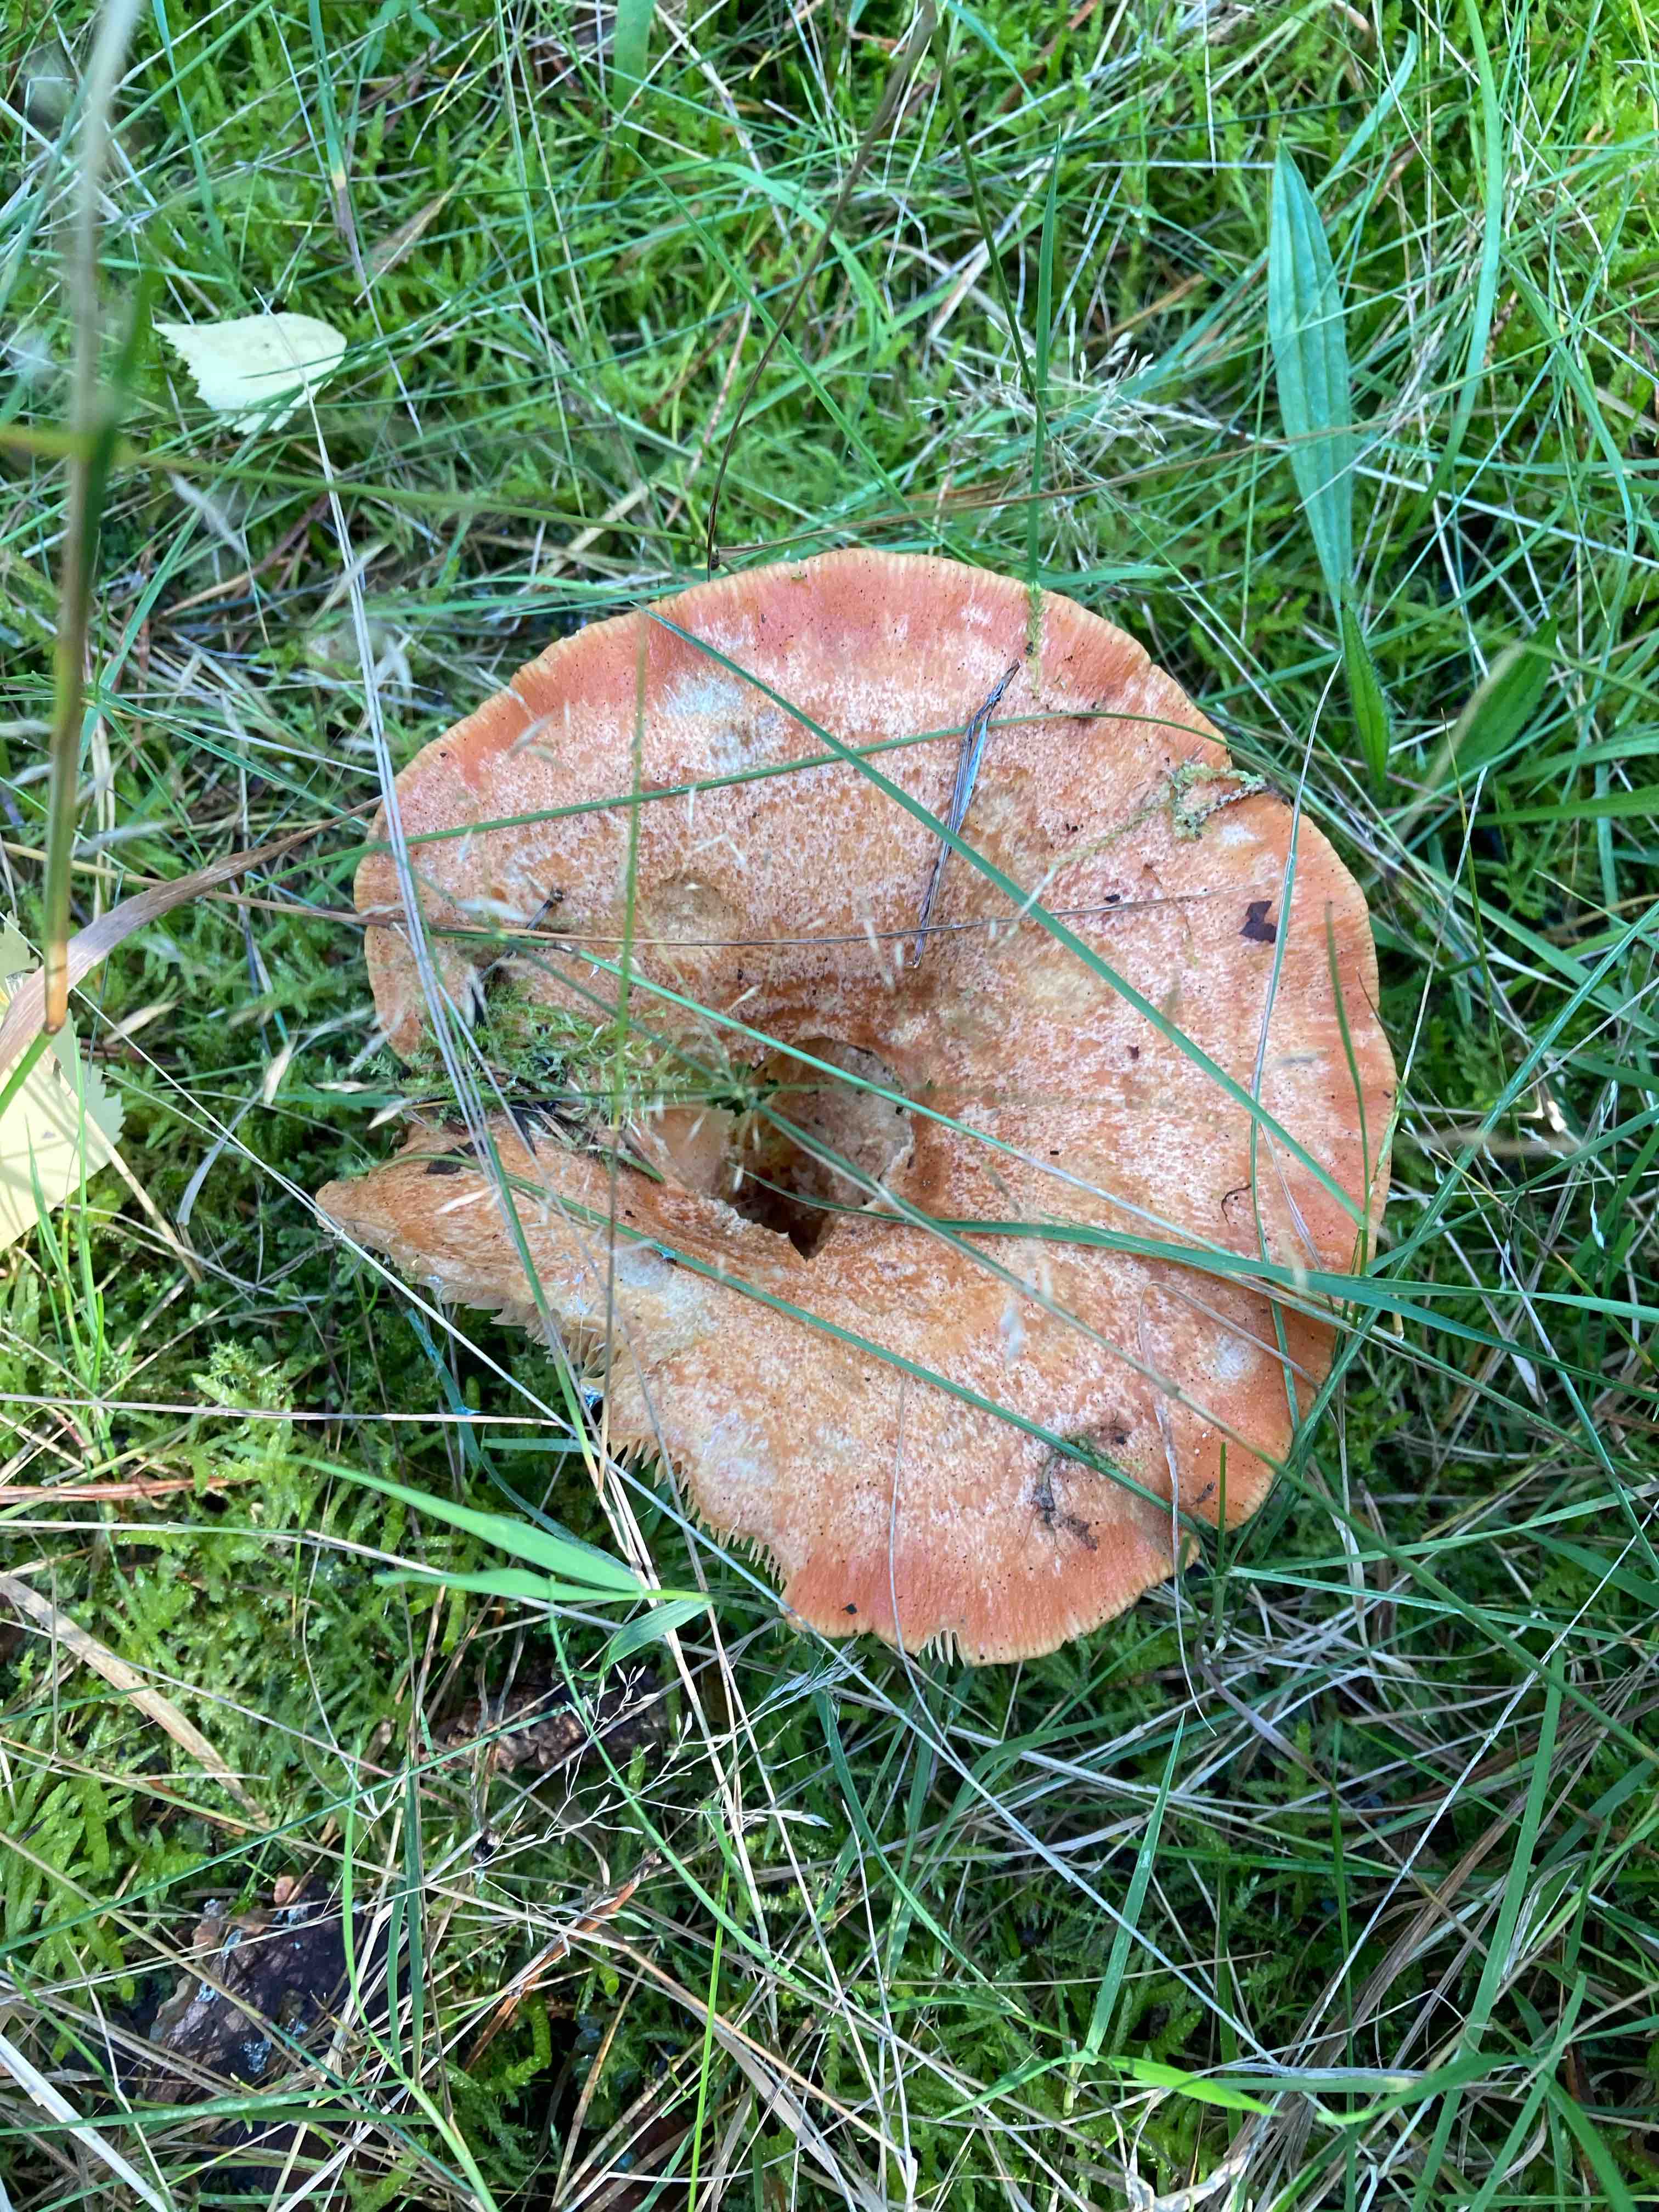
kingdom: Fungi
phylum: Basidiomycota
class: Agaricomycetes
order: Russulales
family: Russulaceae
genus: Lactarius
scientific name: Lactarius
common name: mælkehat
